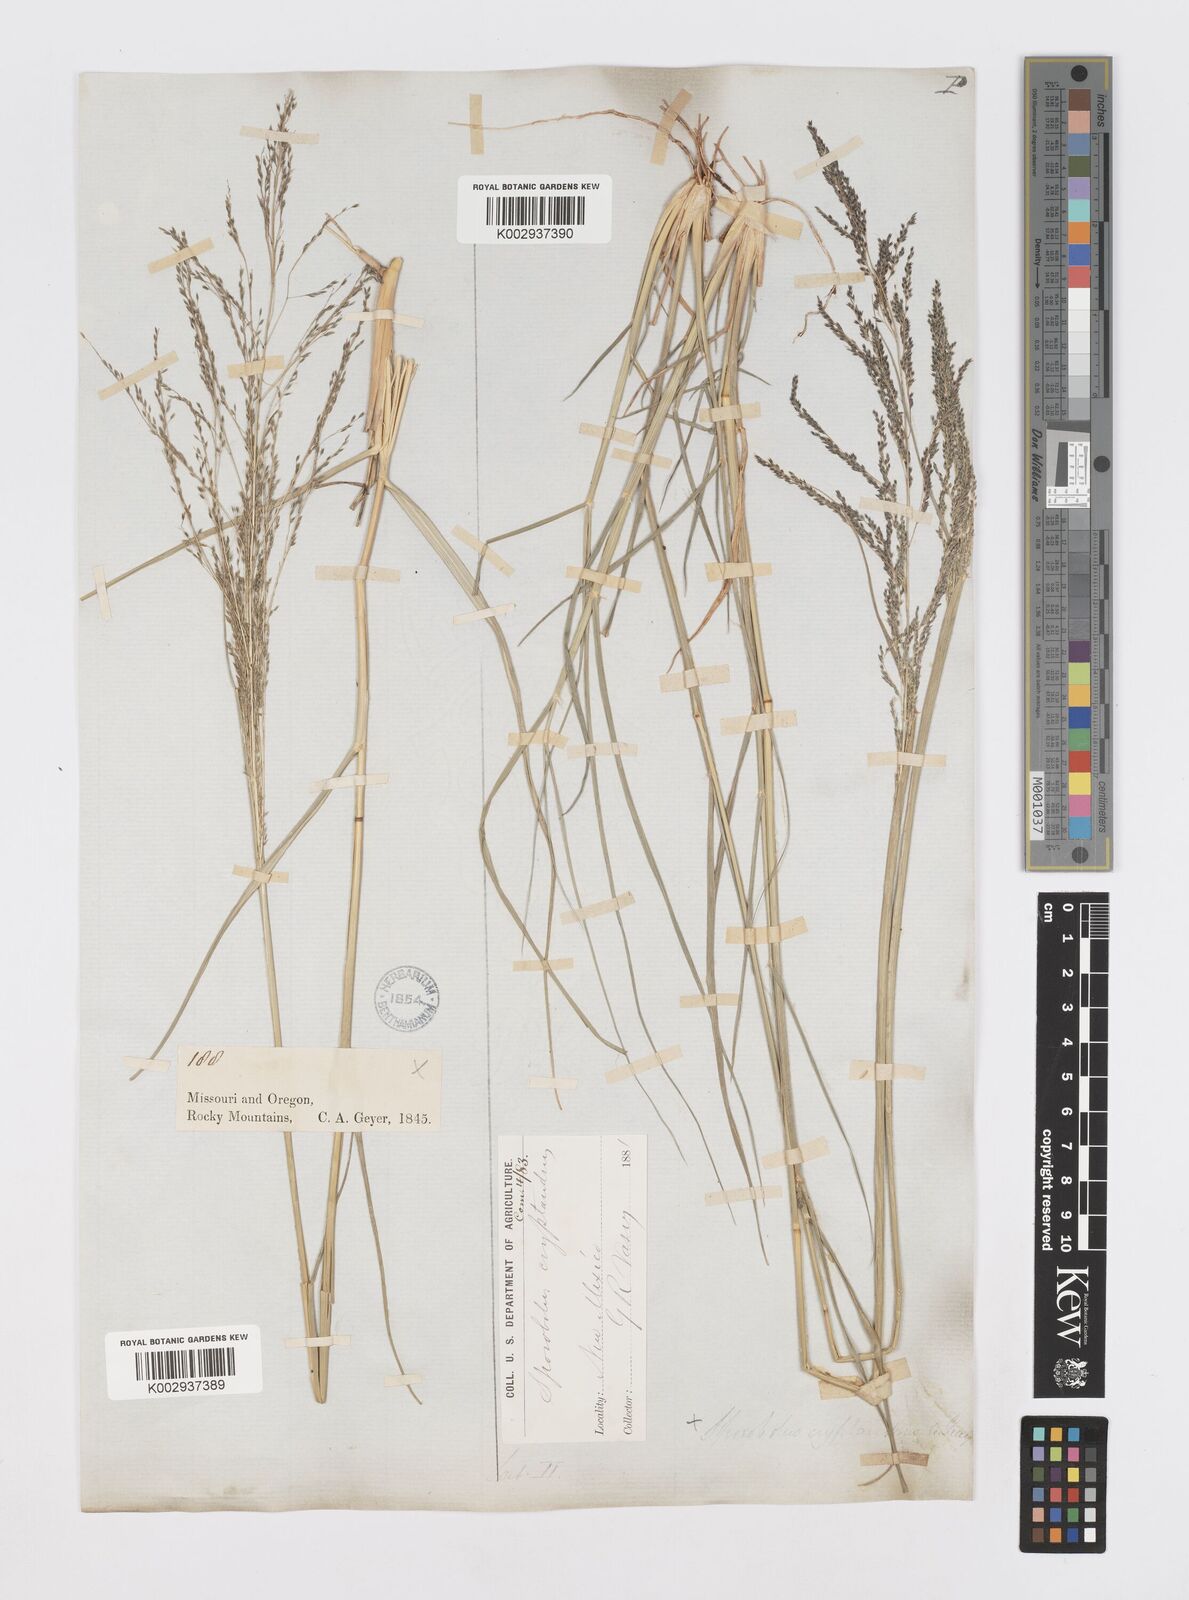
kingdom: Plantae
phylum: Tracheophyta
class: Liliopsida
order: Poales
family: Poaceae
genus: Sporobolus
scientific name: Sporobolus cryptandrus
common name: Sand dropseed
